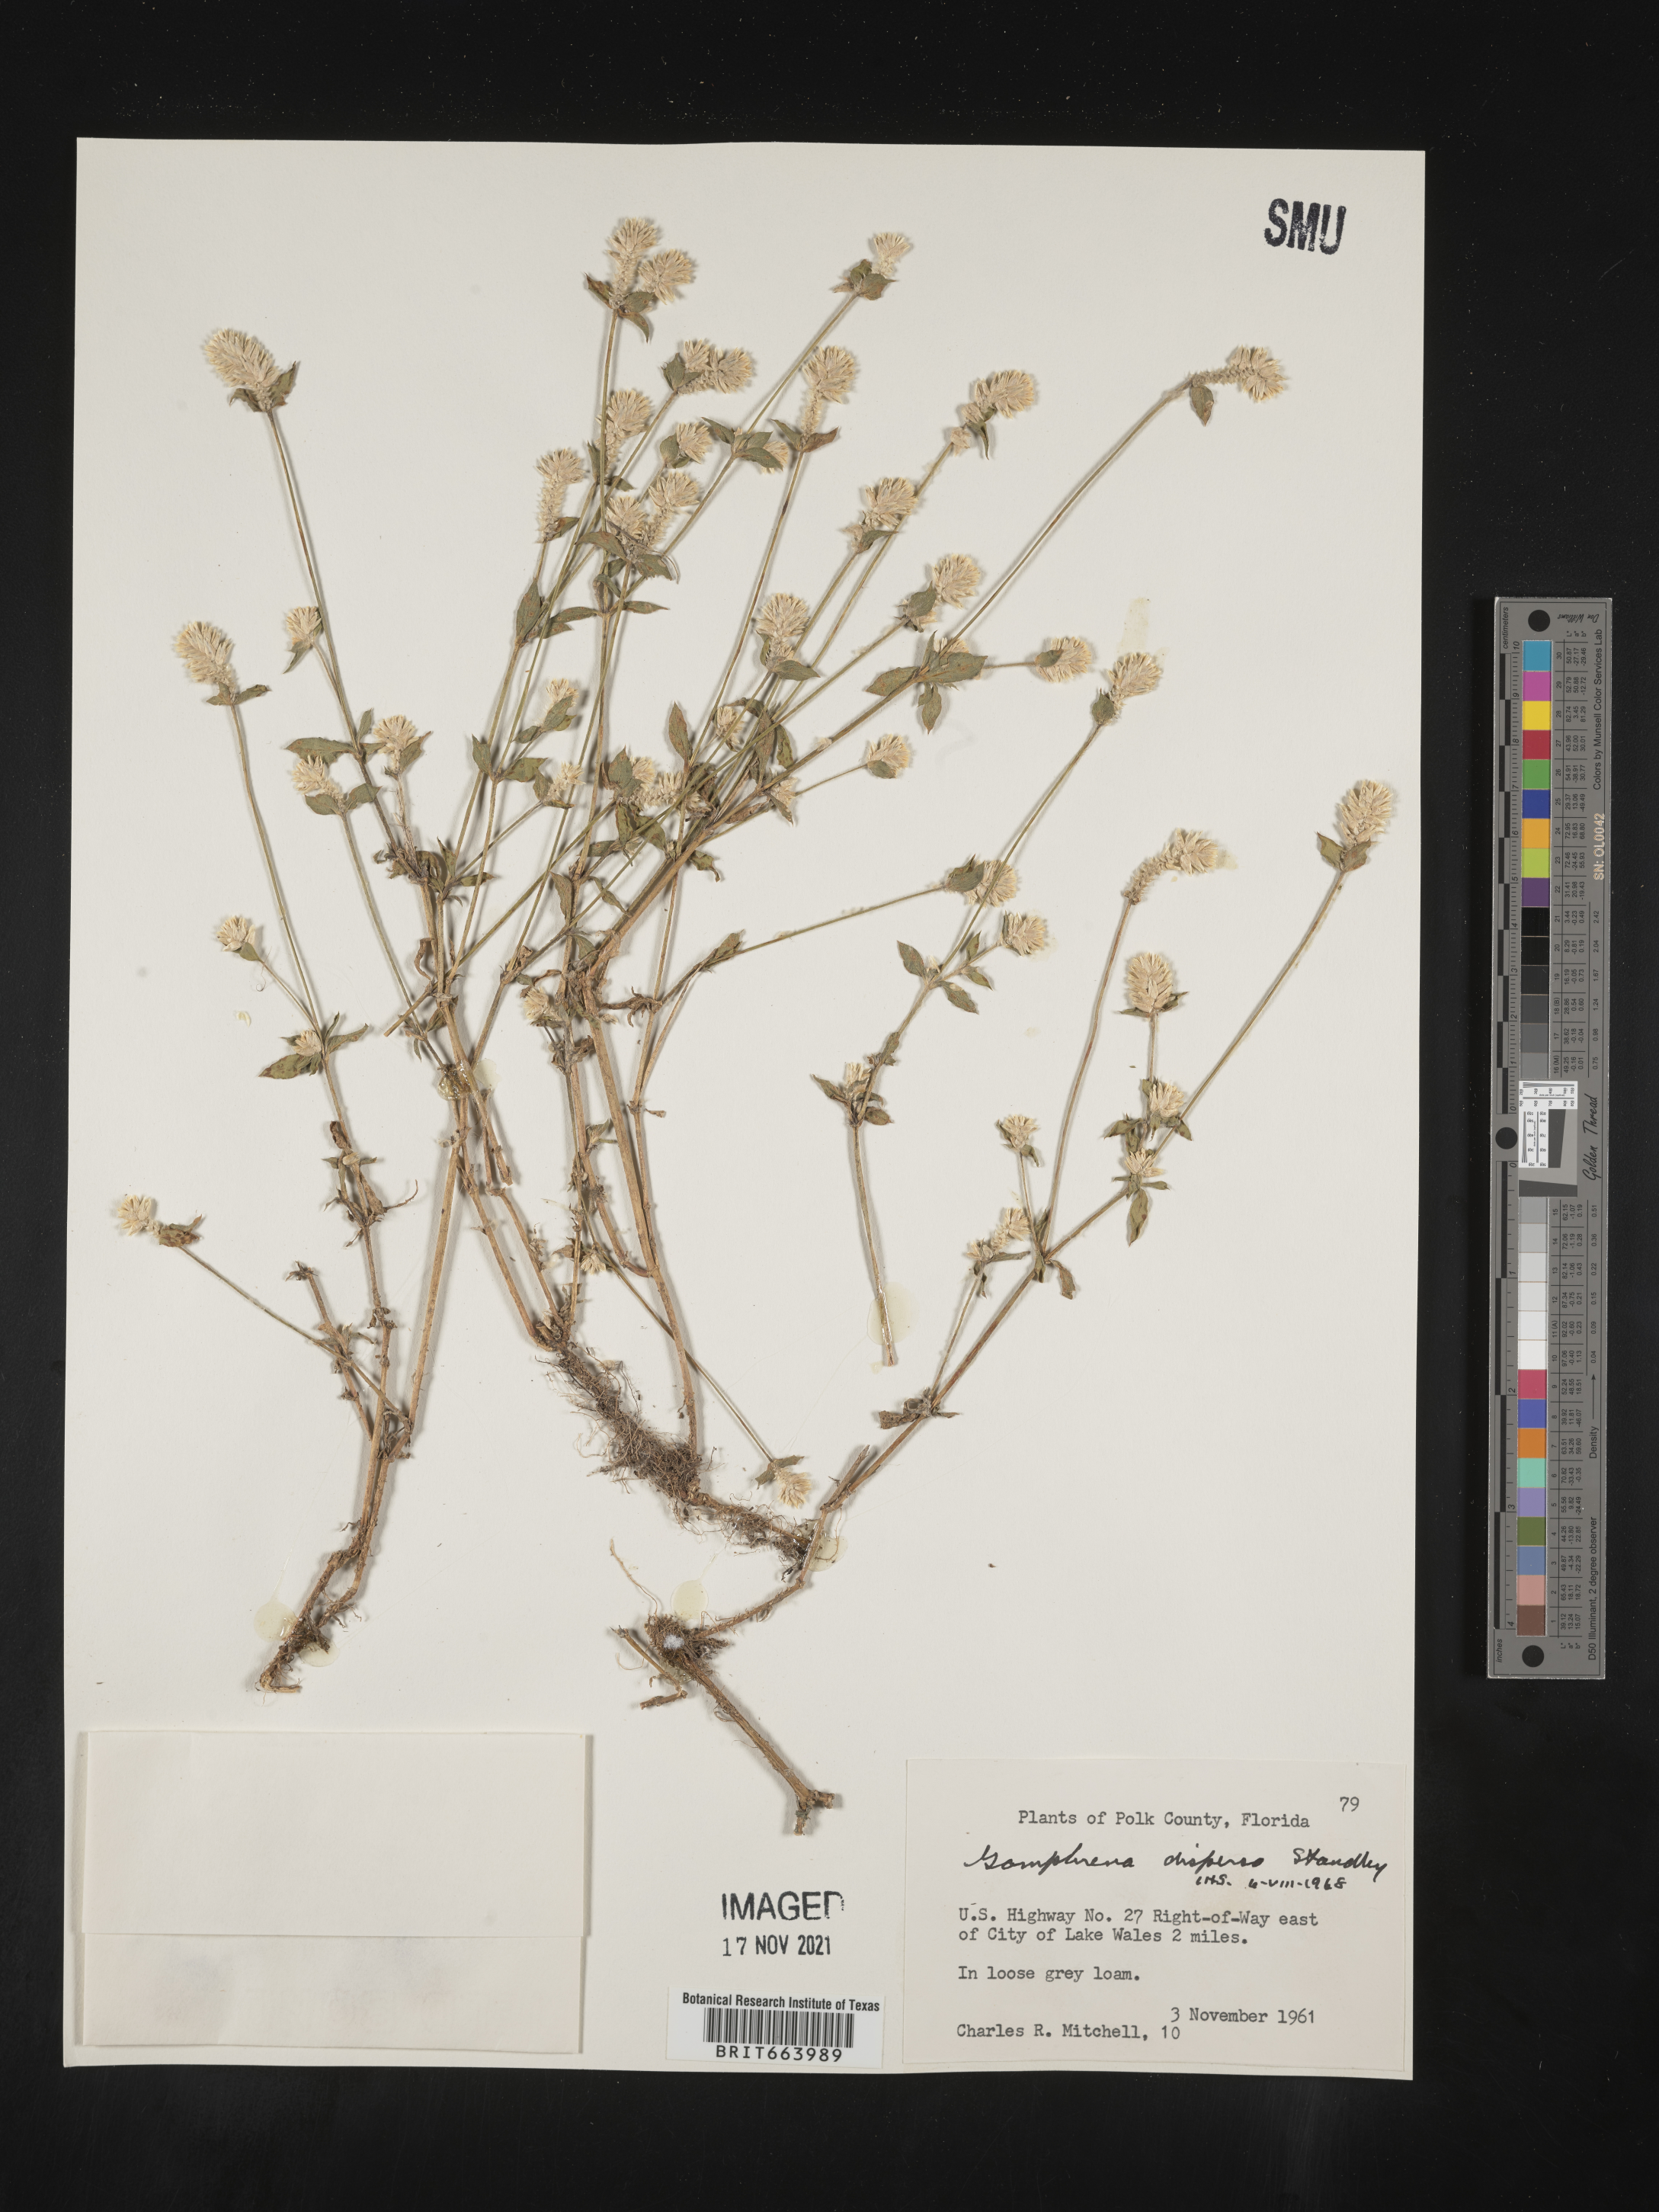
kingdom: Plantae
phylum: Tracheophyta
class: Magnoliopsida
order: Caryophyllales
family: Amaranthaceae
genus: Gomphrena
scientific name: Gomphrena
